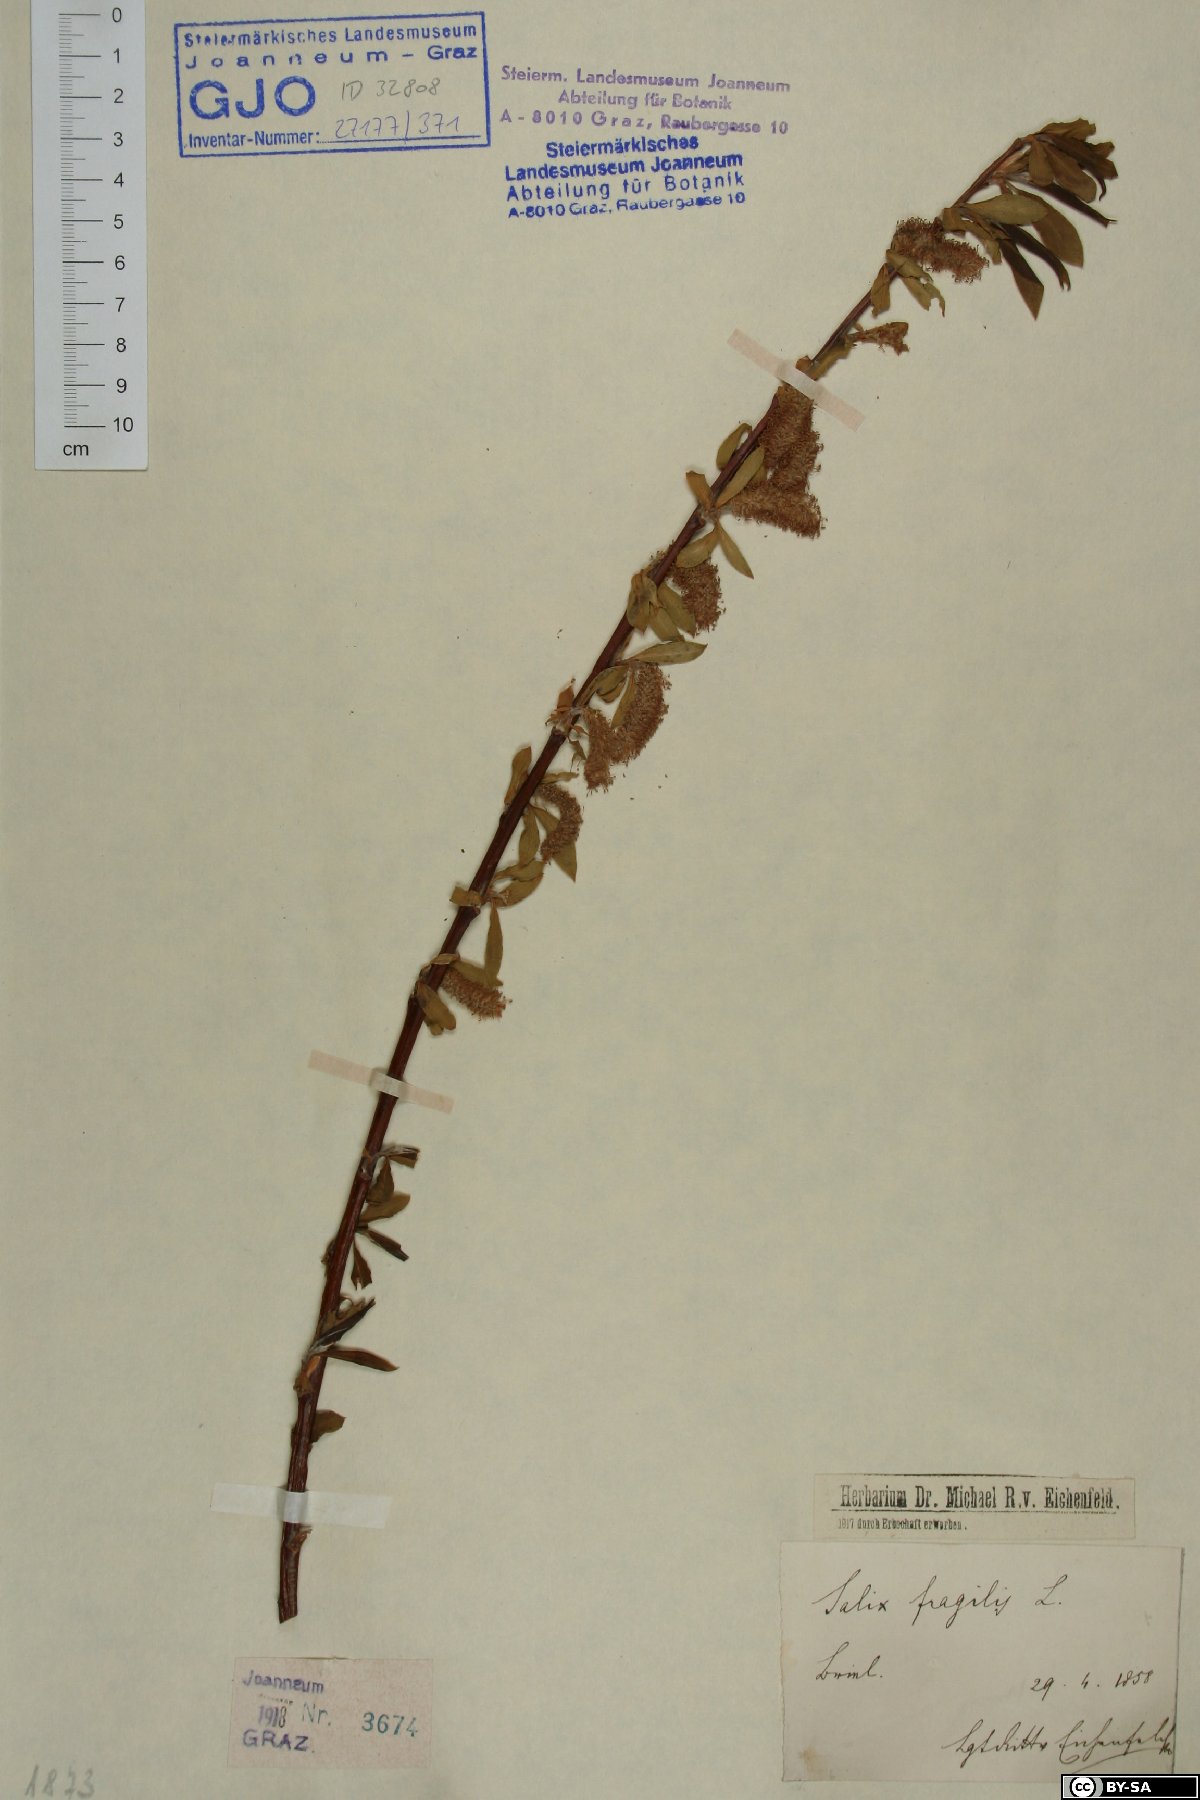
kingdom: Plantae
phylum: Tracheophyta
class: Magnoliopsida
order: Malpighiales
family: Salicaceae
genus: Salix
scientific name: Salix fragilis
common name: Crack willow
